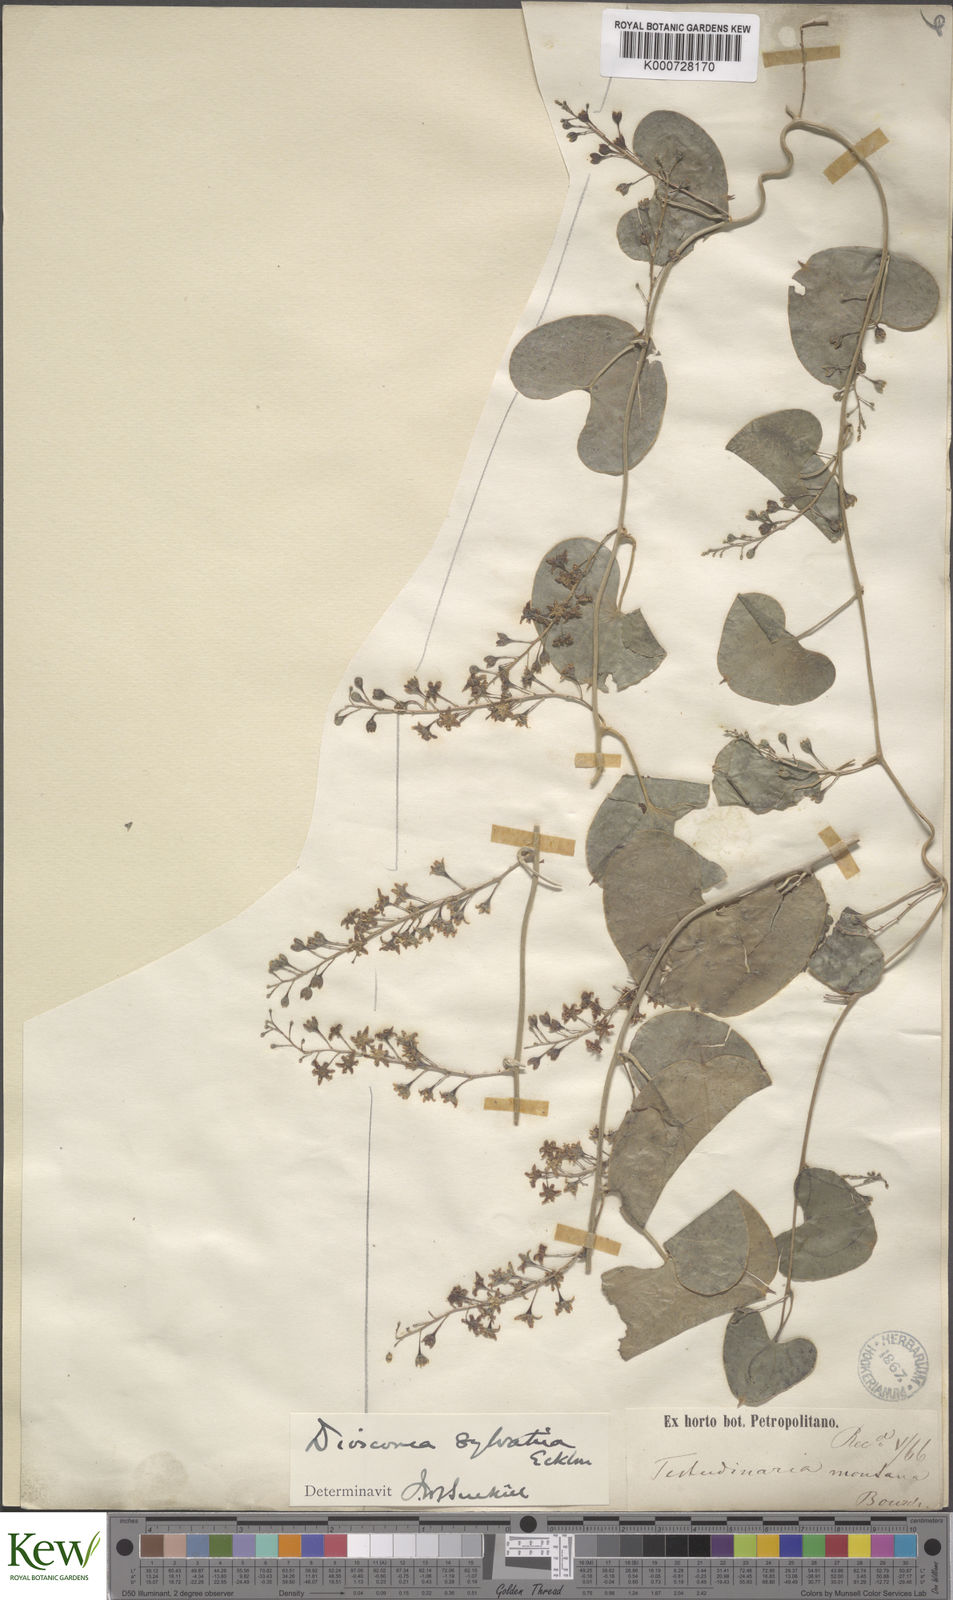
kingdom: Plantae
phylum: Tracheophyta
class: Liliopsida
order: Dioscoreales
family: Dioscoreaceae
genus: Dioscorea
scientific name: Dioscorea sylvatica
